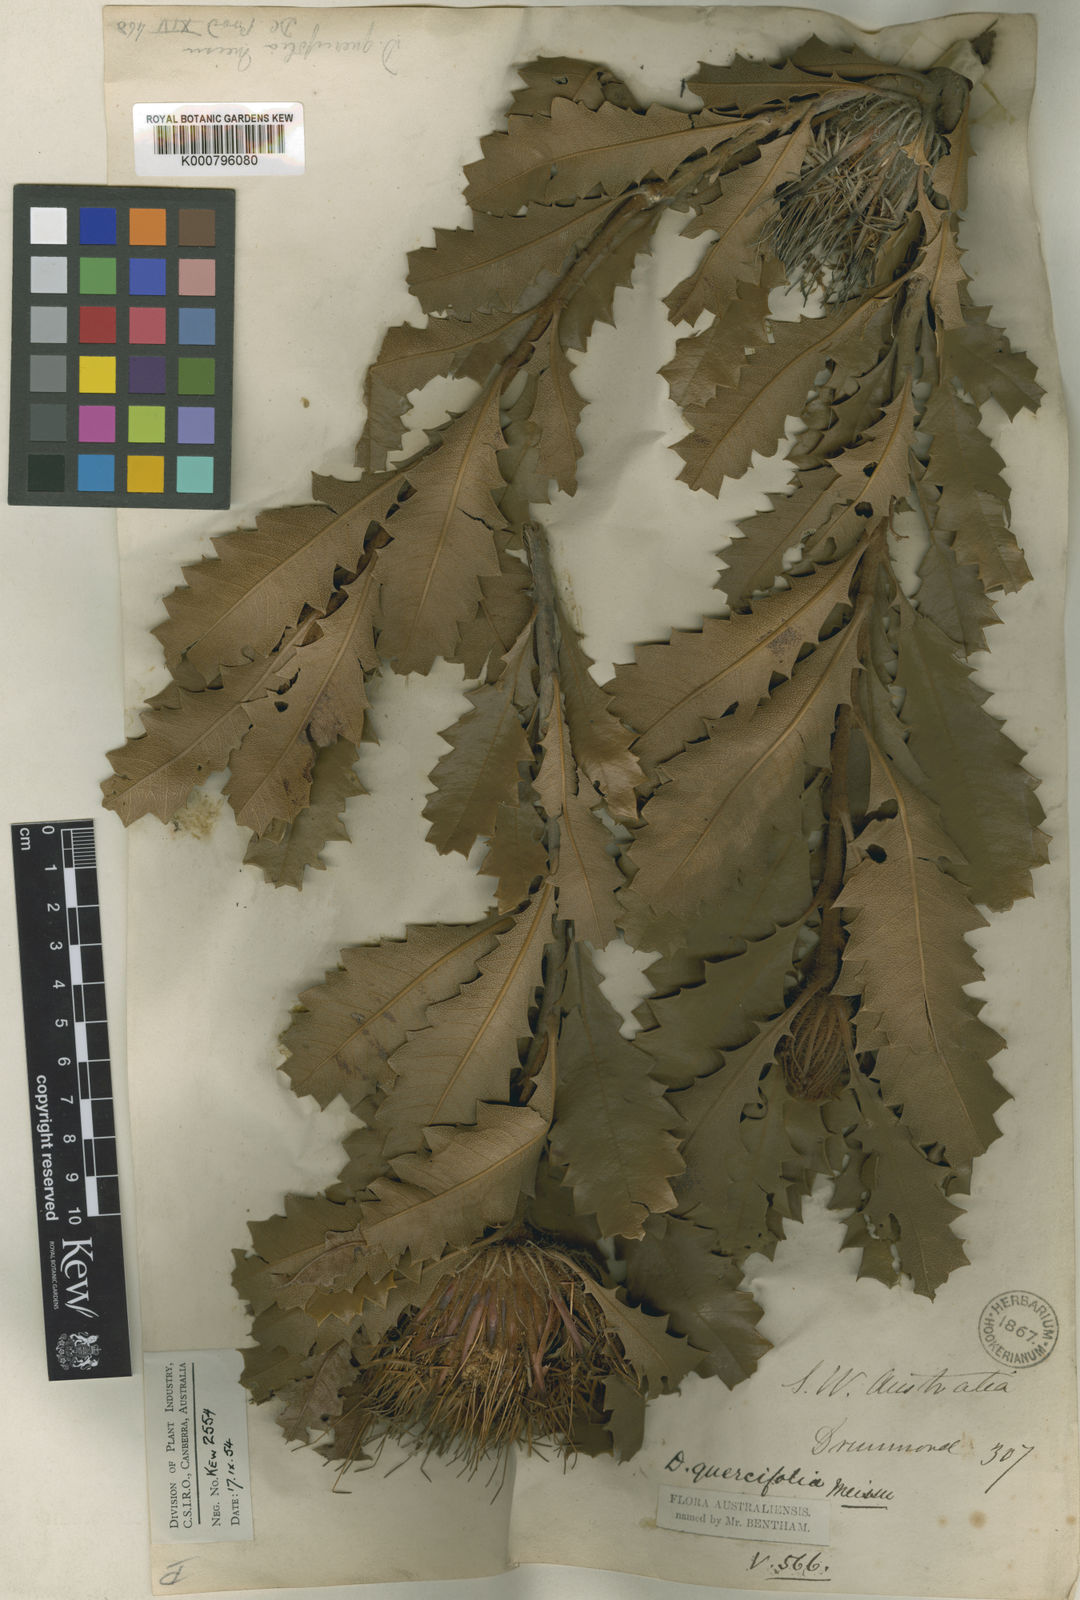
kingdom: Plantae
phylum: Tracheophyta
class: Magnoliopsida
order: Proteales
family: Proteaceae
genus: Banksia
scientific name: Banksia heliantha
